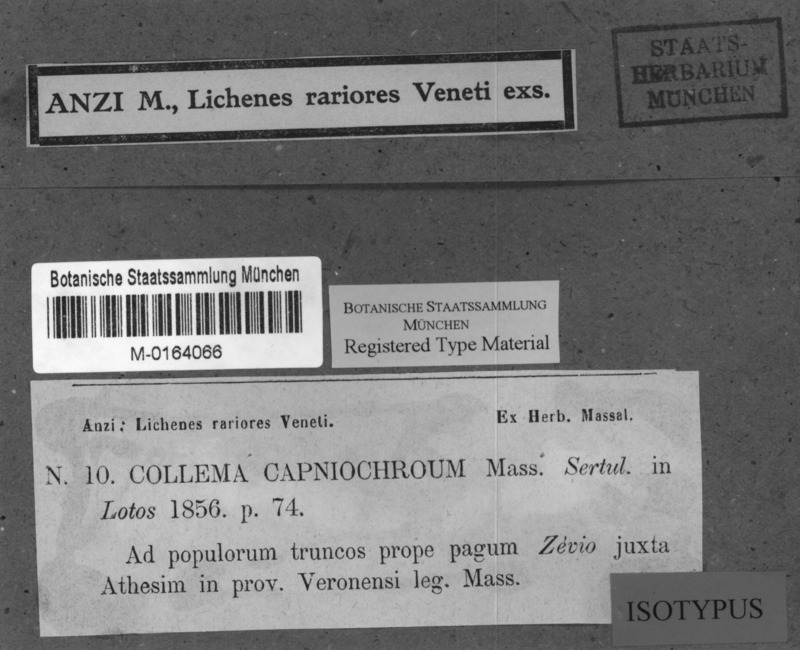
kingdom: Fungi
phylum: Ascomycota
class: Lecanoromycetes
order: Peltigerales
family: Collemataceae
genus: Scytinium
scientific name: Scytinium fragrans
